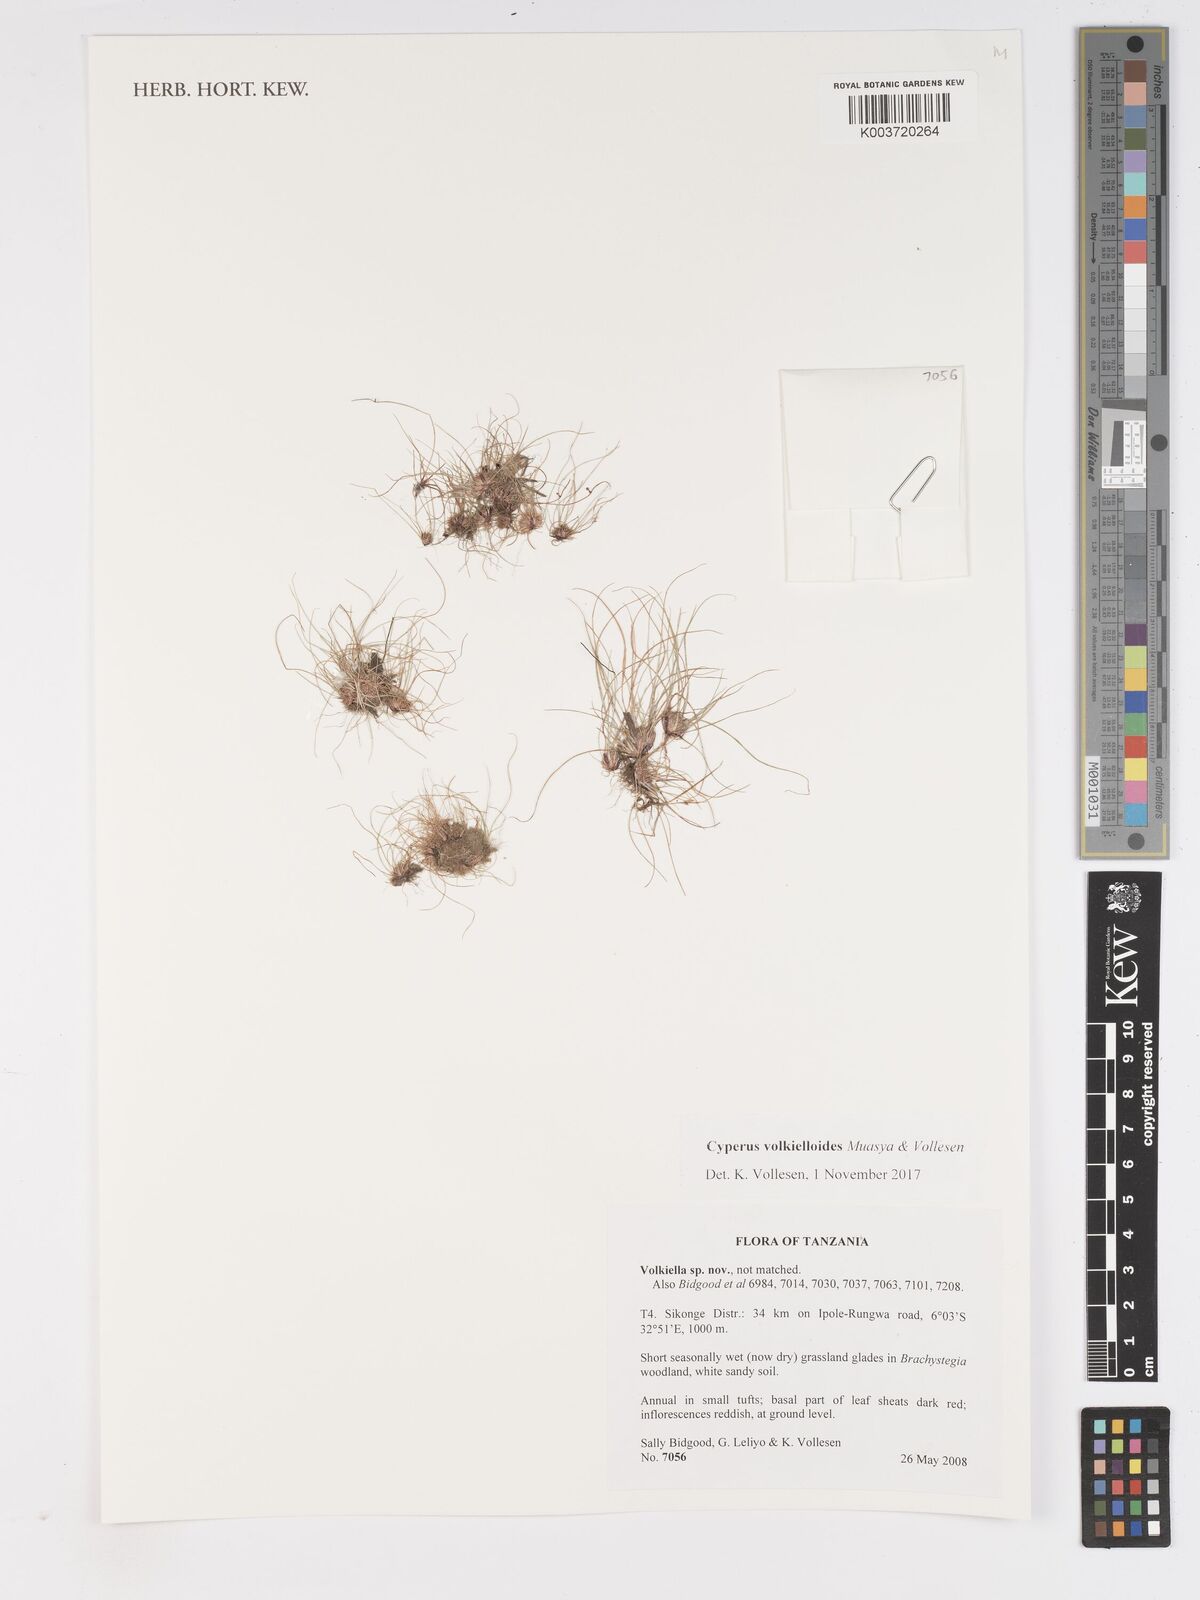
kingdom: Plantae
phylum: Tracheophyta
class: Liliopsida
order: Poales
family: Cyperaceae
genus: Cyperus
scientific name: Cyperus volkielloides
